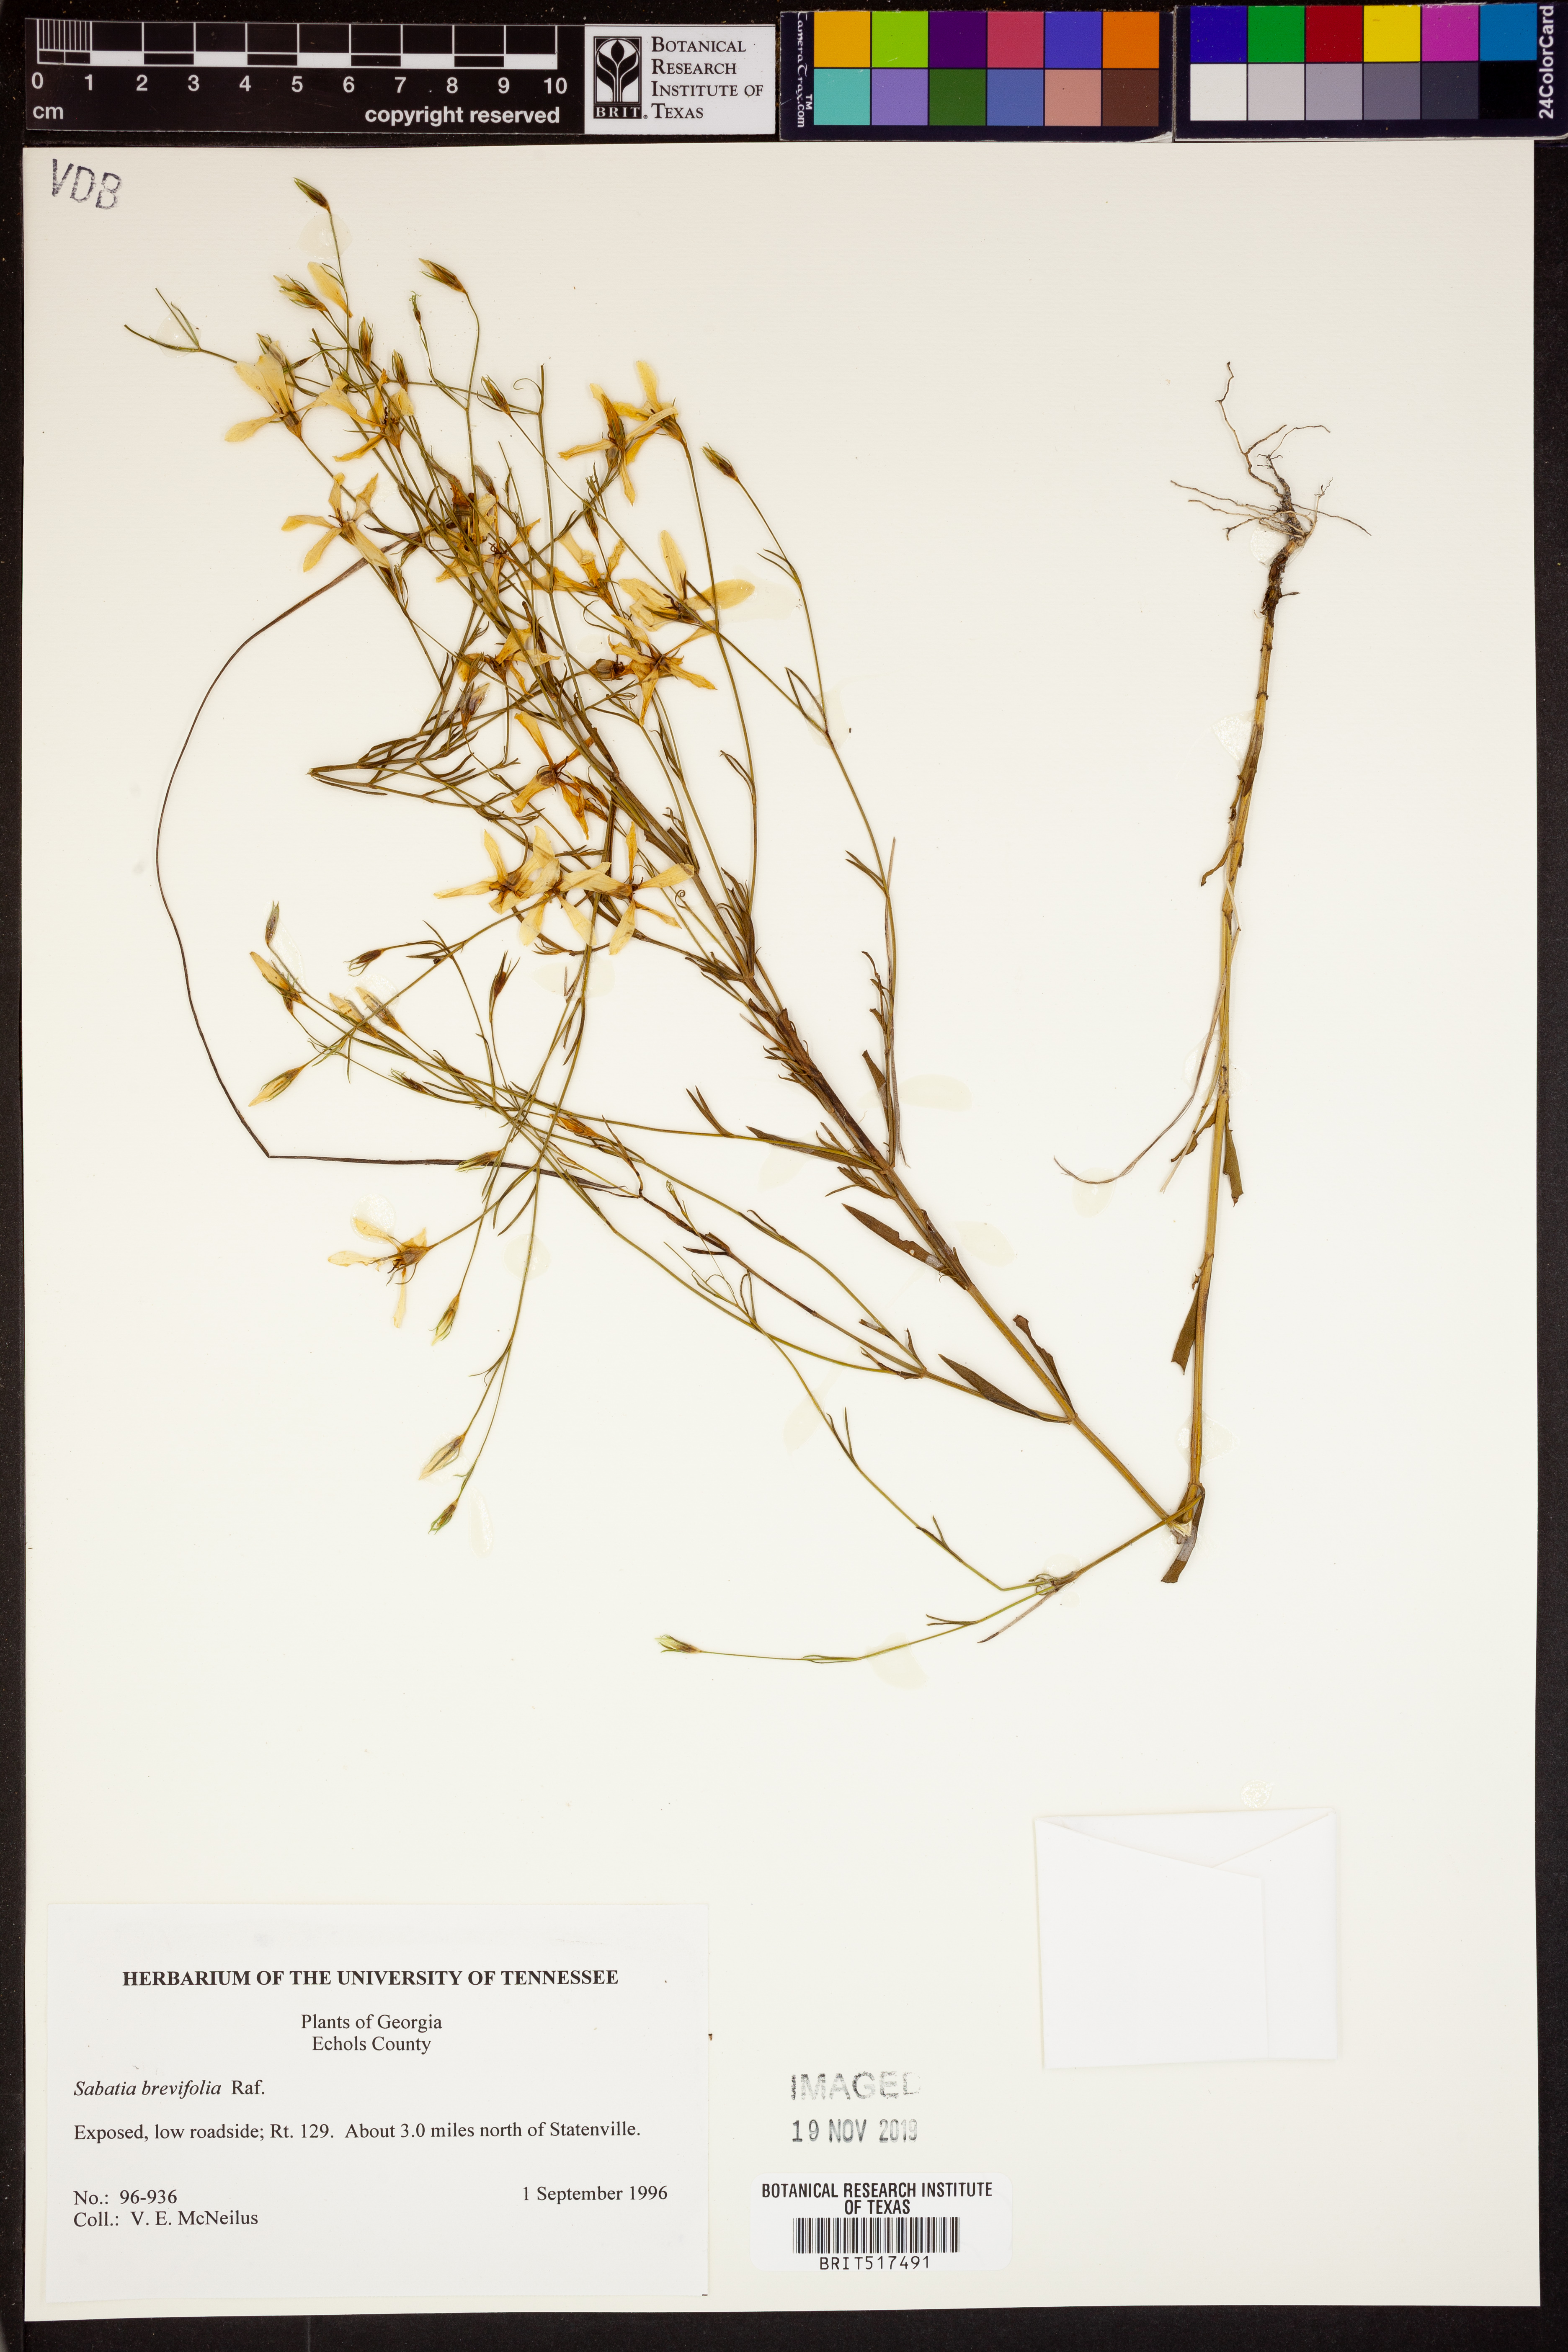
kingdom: Plantae
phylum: Tracheophyta
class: Magnoliopsida
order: Gentianales
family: Gentianaceae
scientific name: Gentianaceae
